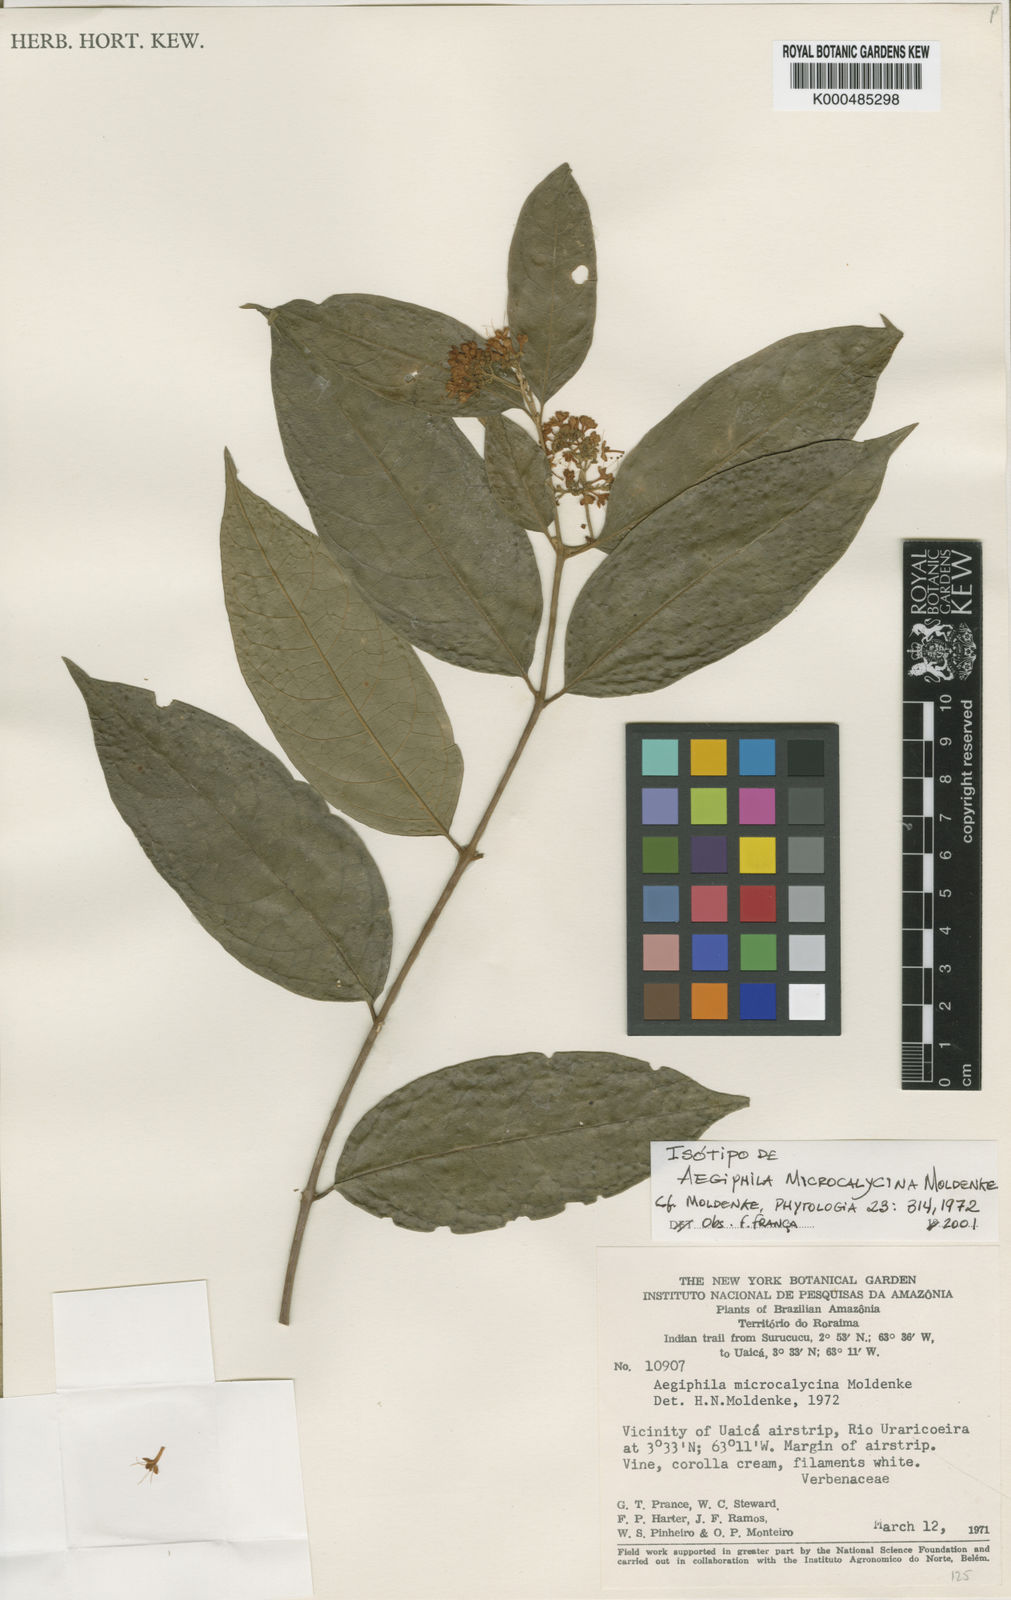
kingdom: Plantae
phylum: Tracheophyta
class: Magnoliopsida
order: Lamiales
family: Lamiaceae
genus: Aegiphila
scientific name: Aegiphila microcalycina
